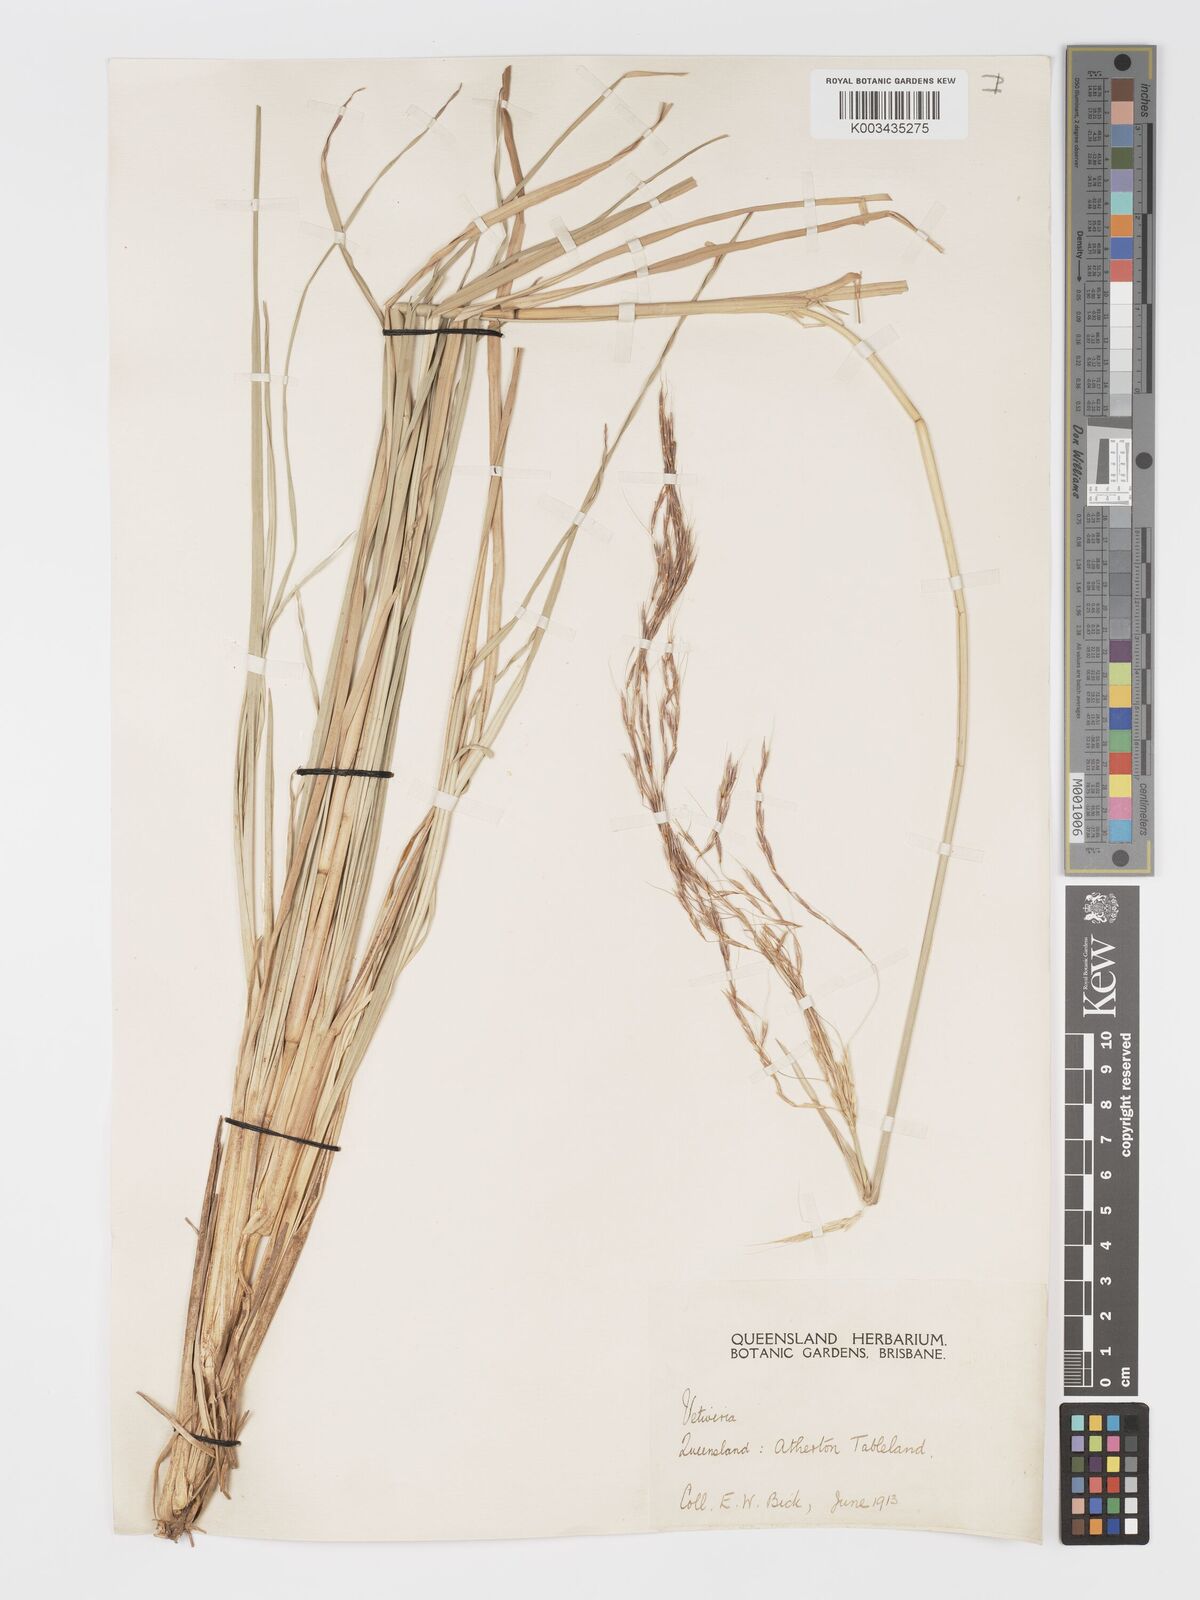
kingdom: Plantae
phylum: Tracheophyta
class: Liliopsida
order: Poales
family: Poaceae
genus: Chrysopogon
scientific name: Chrysopogon filipes
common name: Australian vetiver
